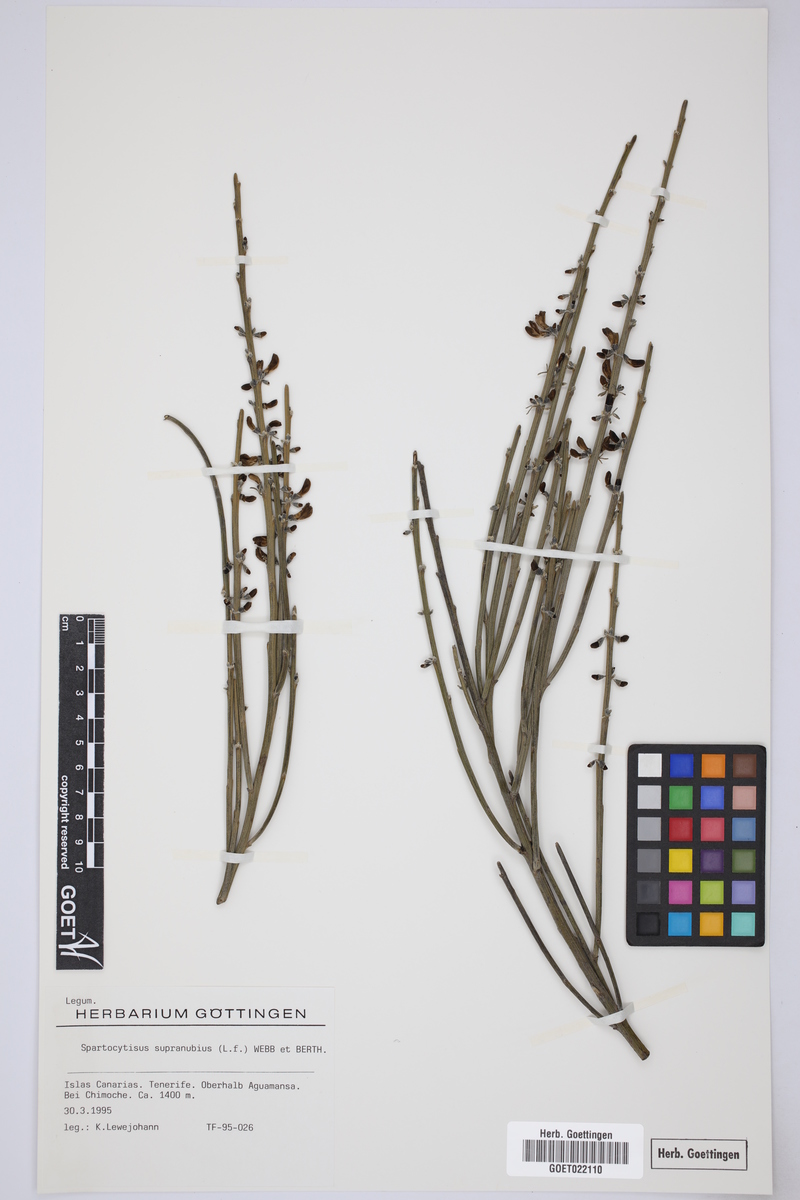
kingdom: Plantae
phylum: Tracheophyta
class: Magnoliopsida
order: Fabales
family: Fabaceae
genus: Cytisus
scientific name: Cytisus supranubius
